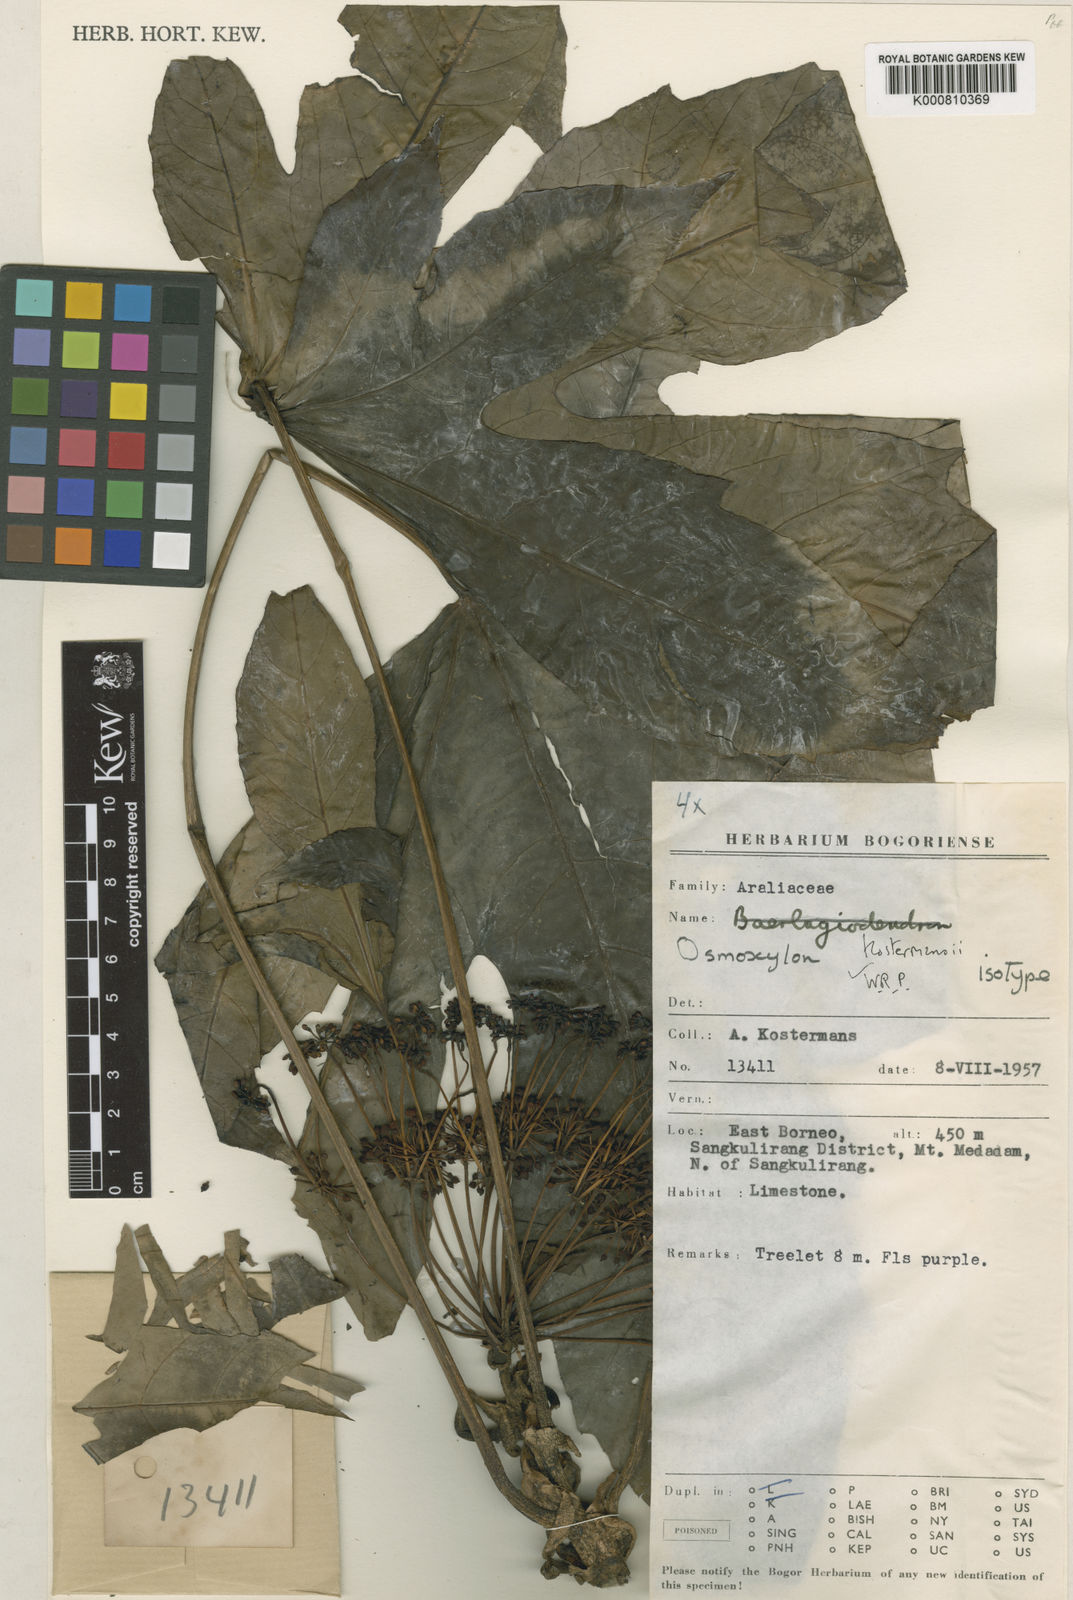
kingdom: Plantae
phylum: Tracheophyta
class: Magnoliopsida
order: Apiales
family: Araliaceae
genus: Osmoxylon
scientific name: Osmoxylon kostermansii
